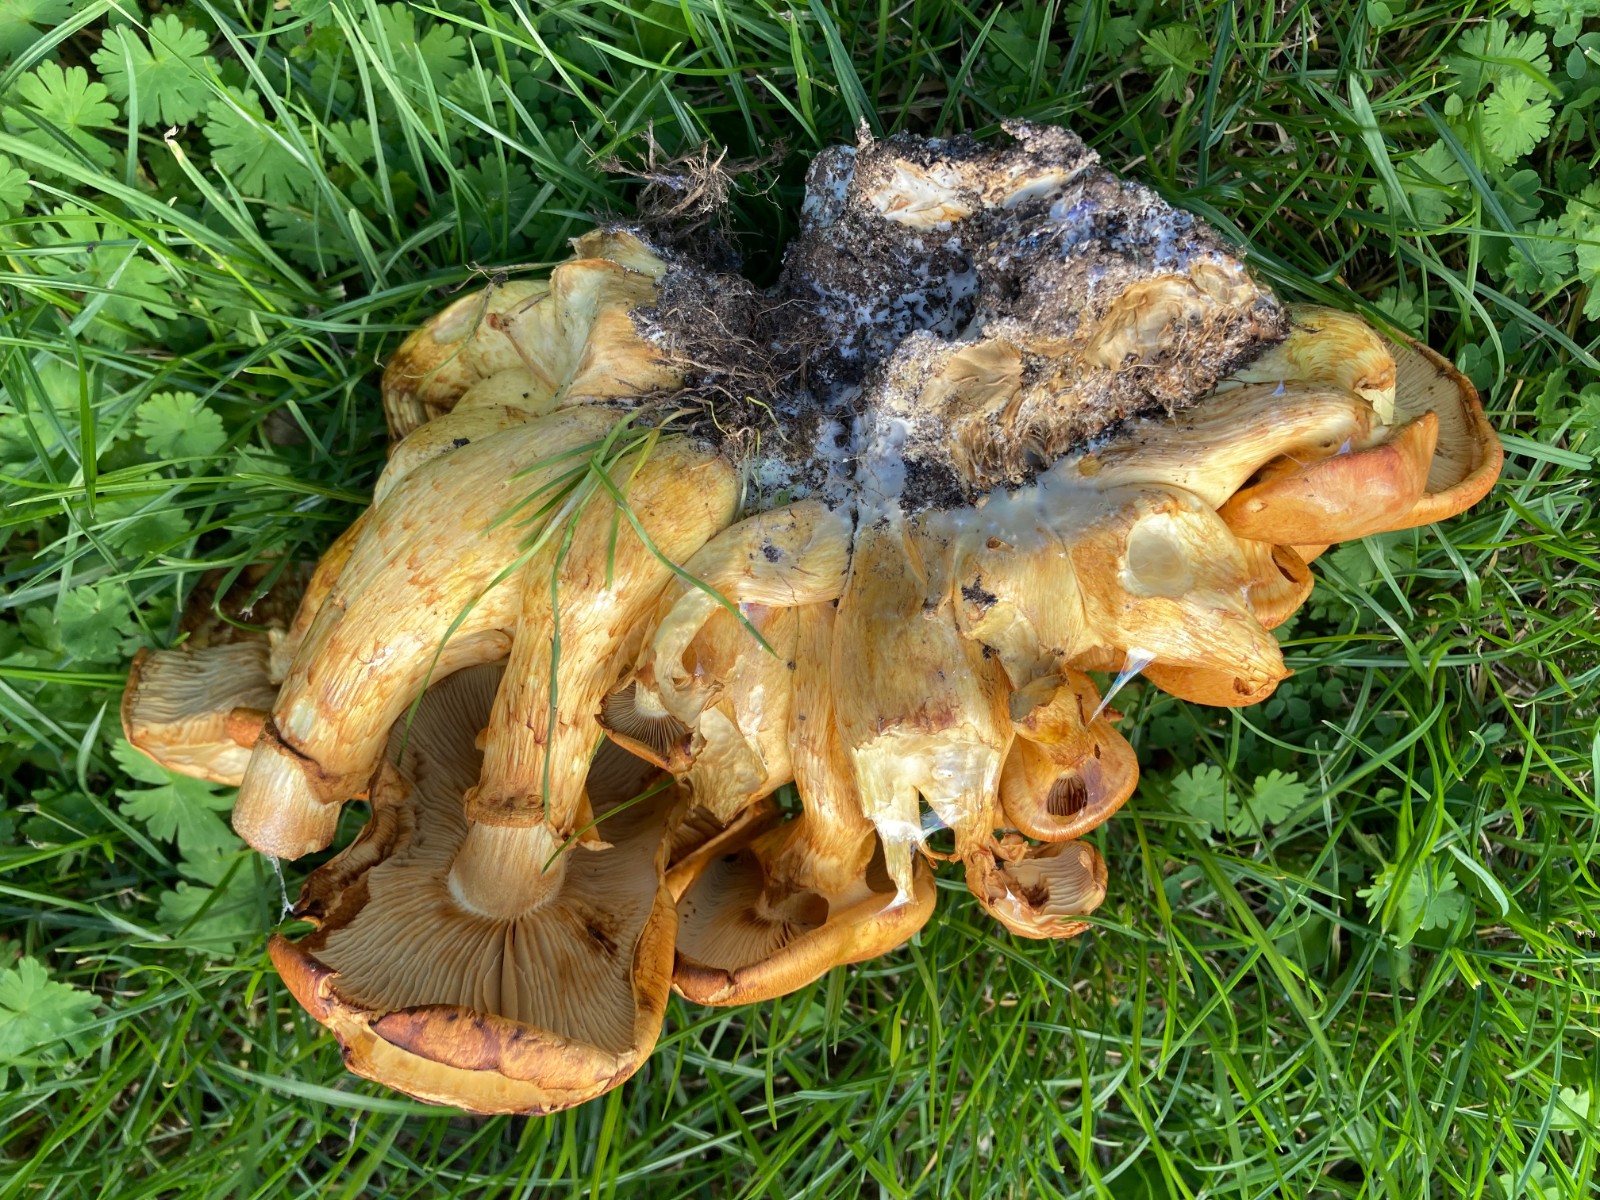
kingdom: Fungi
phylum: Basidiomycota
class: Agaricomycetes
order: Agaricales
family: Hymenogastraceae
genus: Gymnopilus
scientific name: Gymnopilus spectabilis
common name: fibret flammehat
